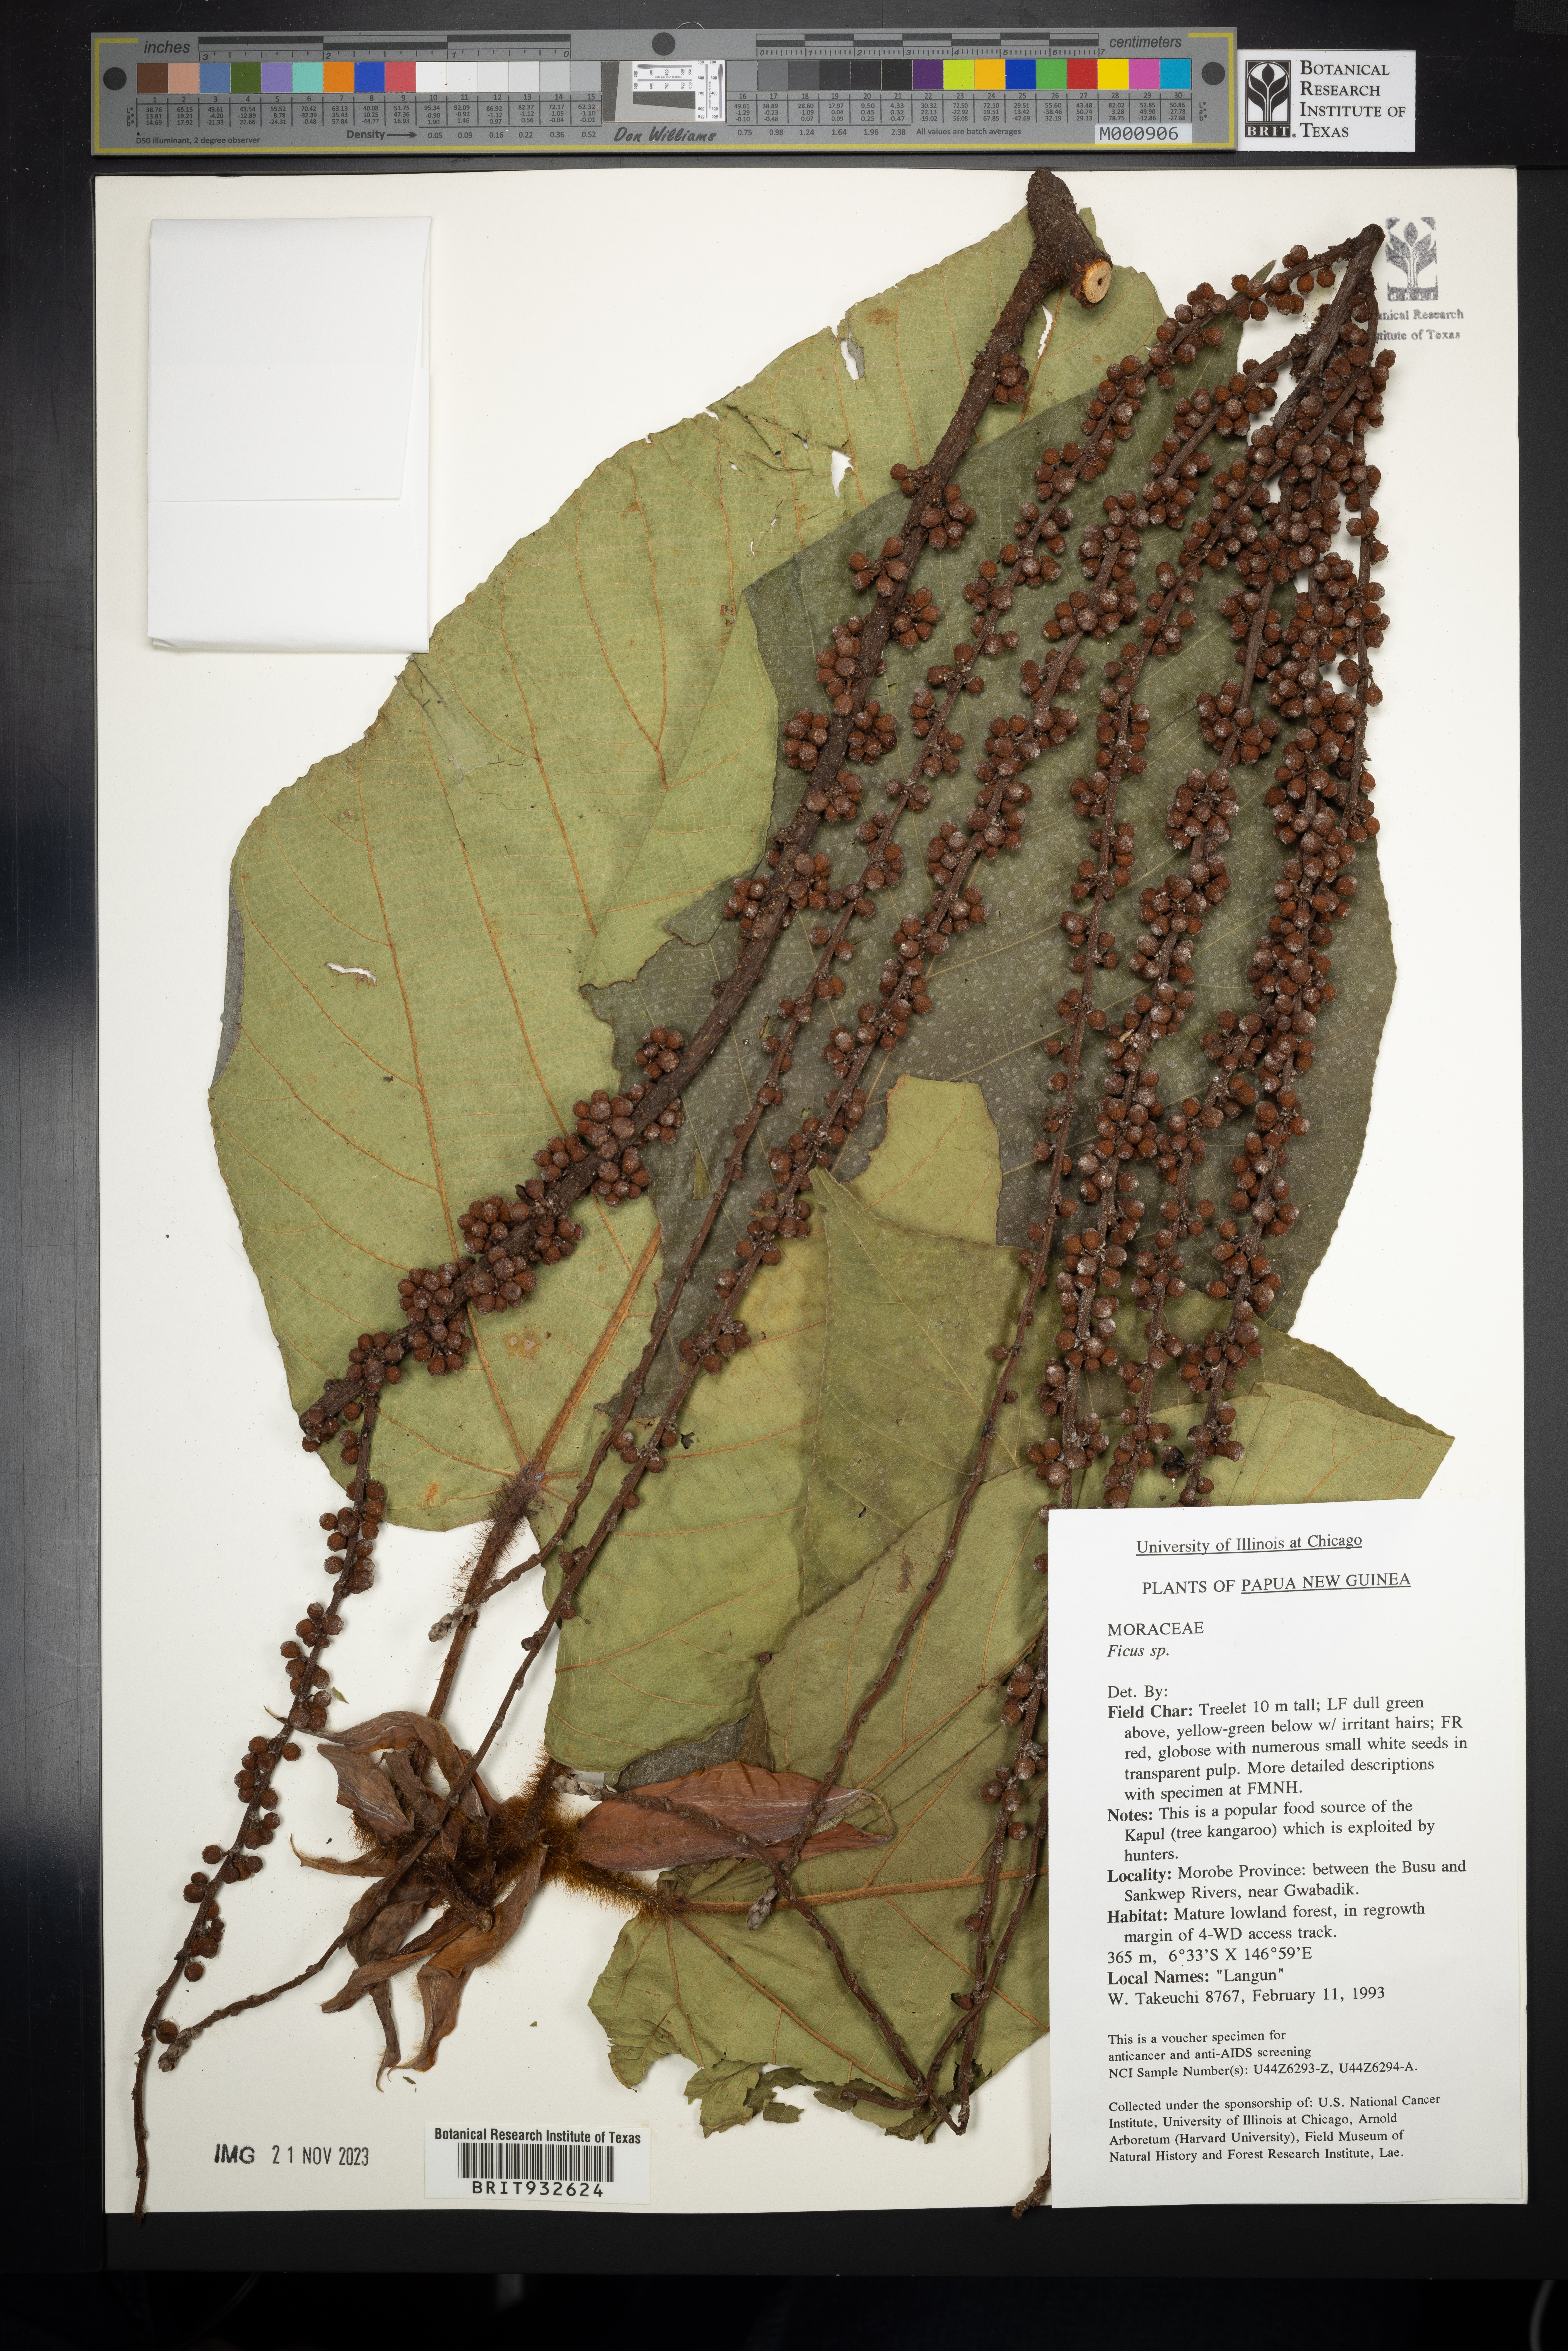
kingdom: Plantae
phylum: Tracheophyta
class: Magnoliopsida
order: Rosales
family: Moraceae
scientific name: Moraceae
